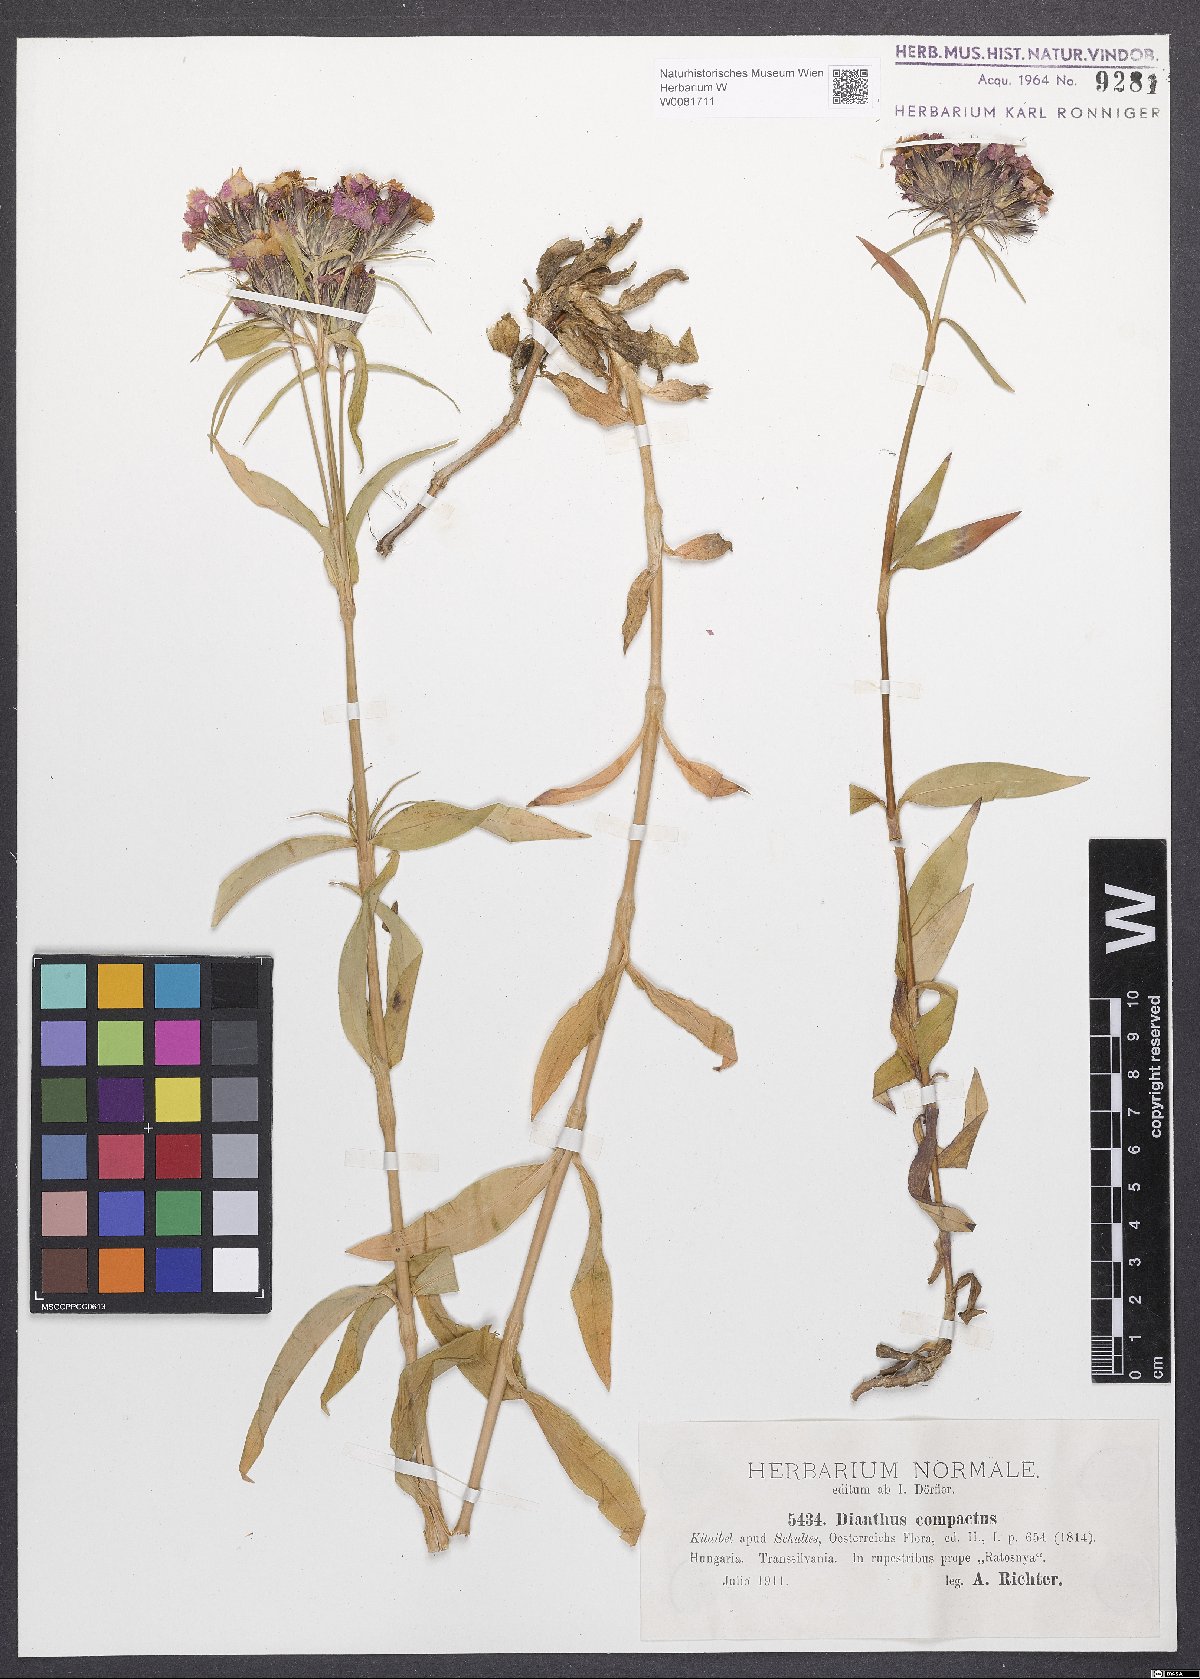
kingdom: Plantae
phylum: Tracheophyta
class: Magnoliopsida
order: Caryophyllales
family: Caryophyllaceae
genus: Dianthus
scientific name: Dianthus barbatus
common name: Sweet-william
